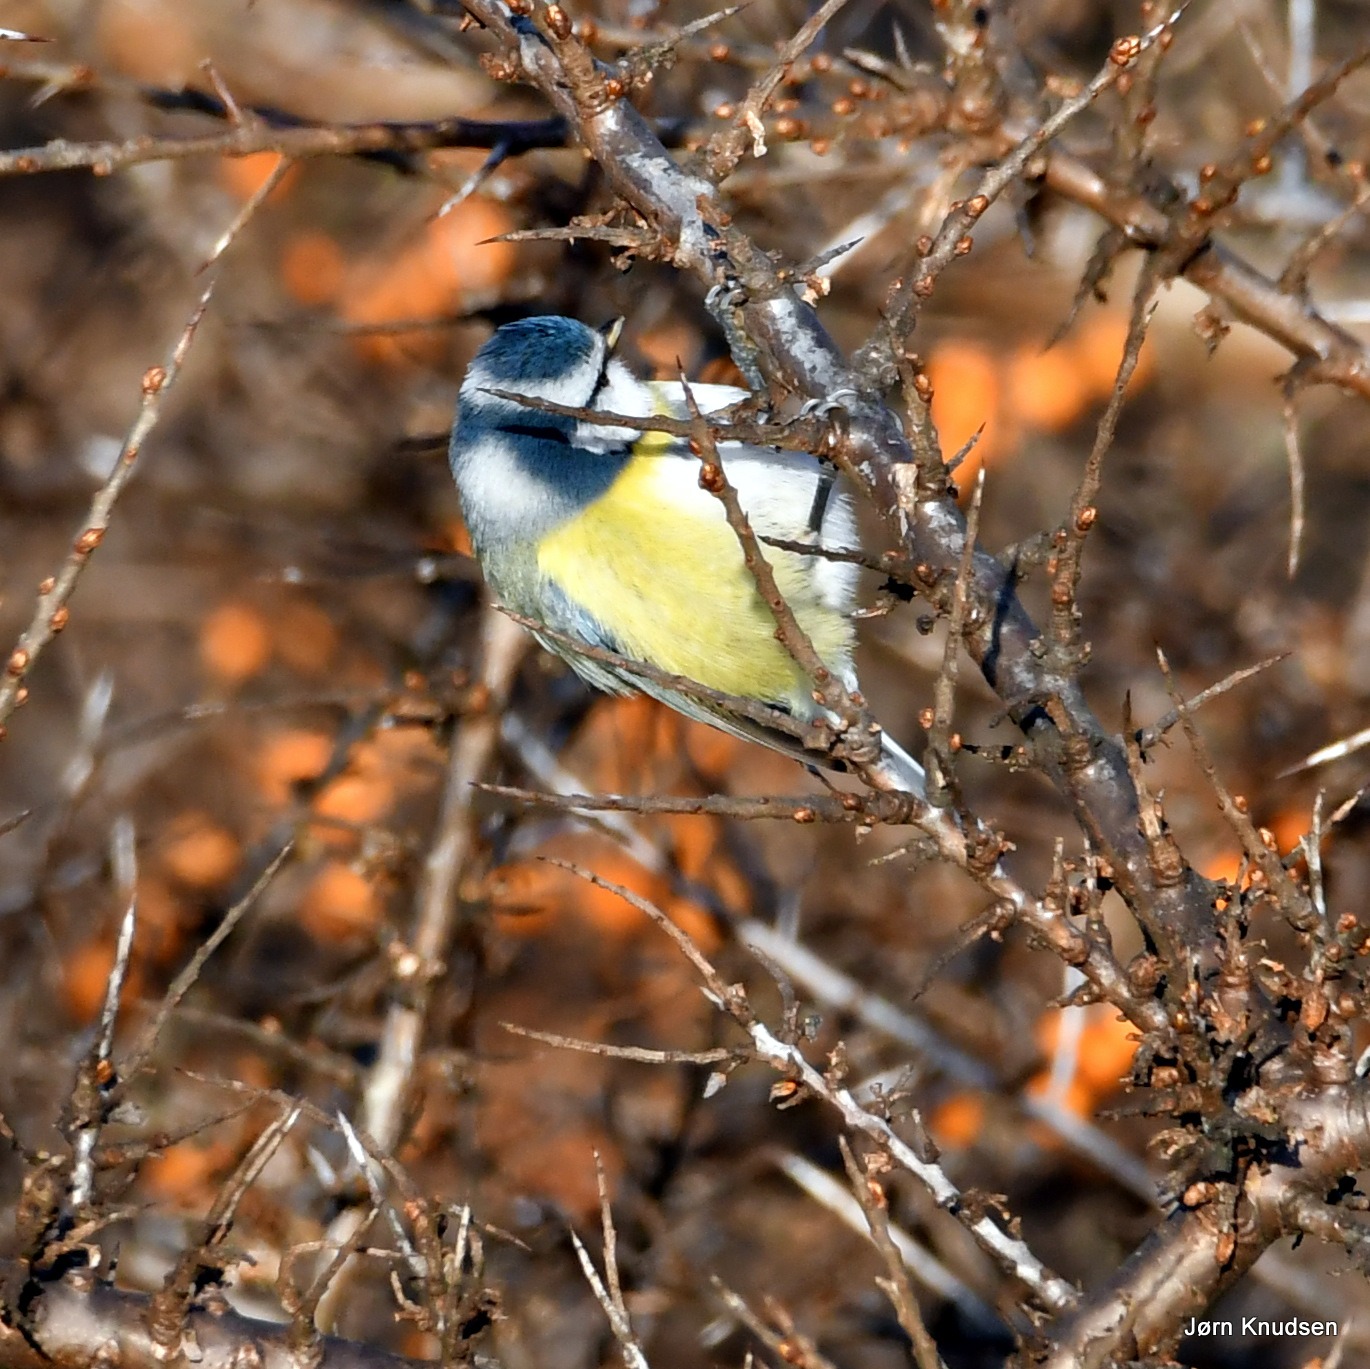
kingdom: Animalia
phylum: Chordata
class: Aves
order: Passeriformes
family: Paridae
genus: Cyanistes
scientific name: Cyanistes caeruleus
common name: Blåmejse
